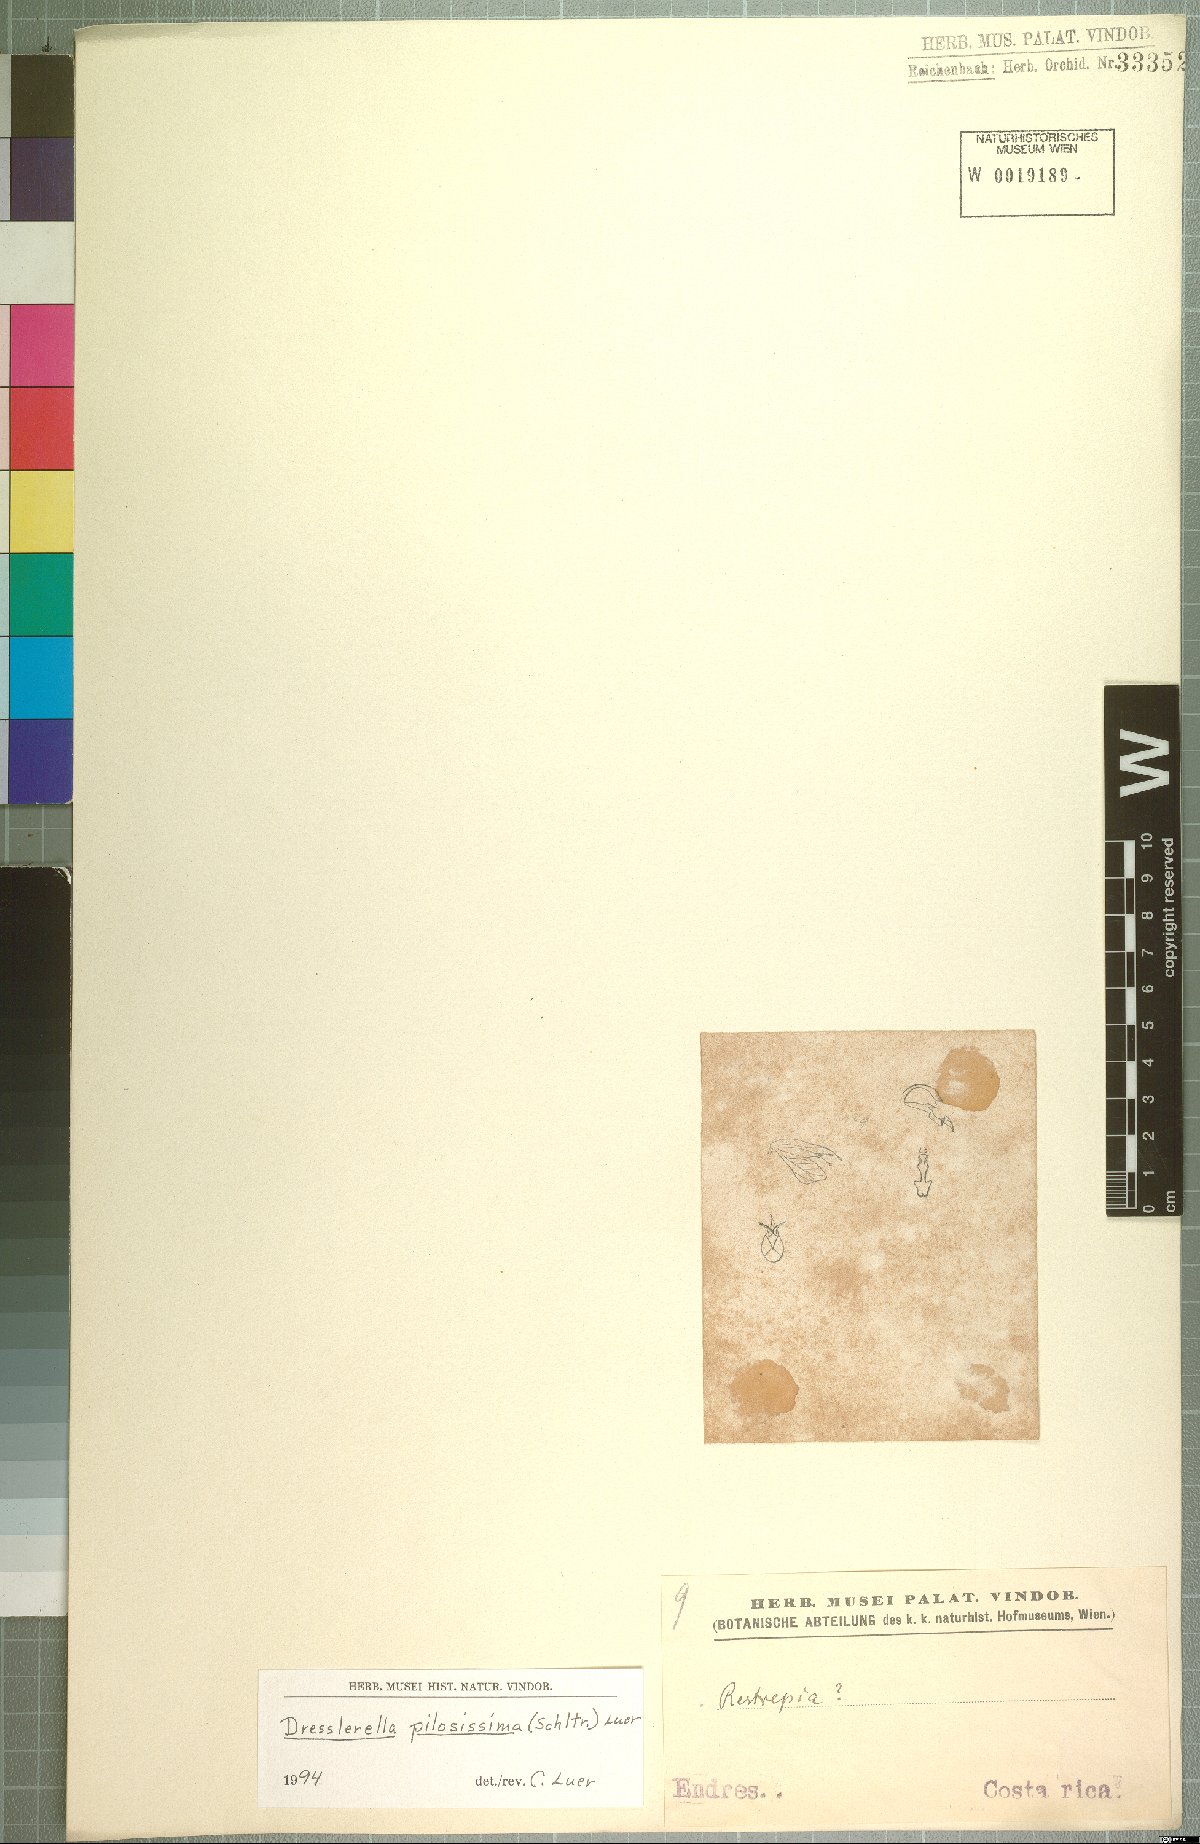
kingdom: Plantae
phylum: Tracheophyta
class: Liliopsida
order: Asparagales
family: Orchidaceae
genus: Dresslerella
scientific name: Dresslerella pilosissima
